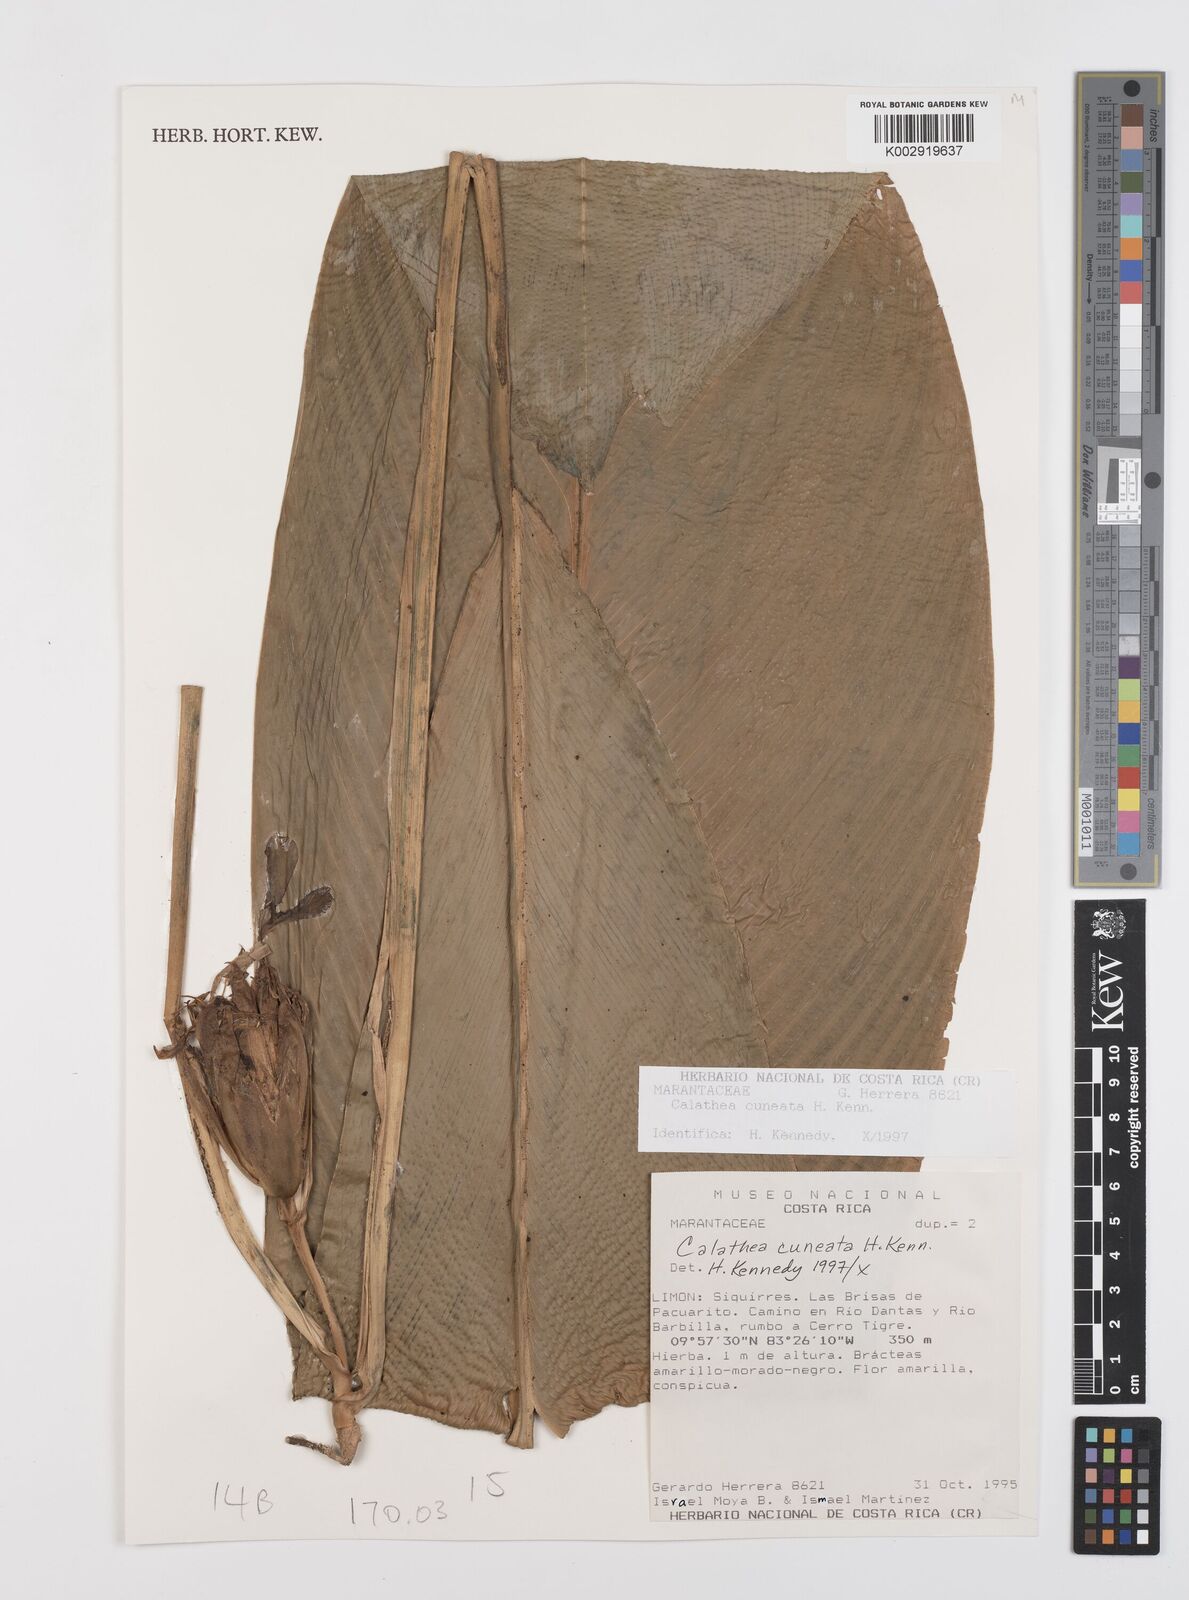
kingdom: Plantae
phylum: Tracheophyta
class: Liliopsida
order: Zingiberales
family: Marantaceae
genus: Goeppertia
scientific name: Goeppertia cuneata
